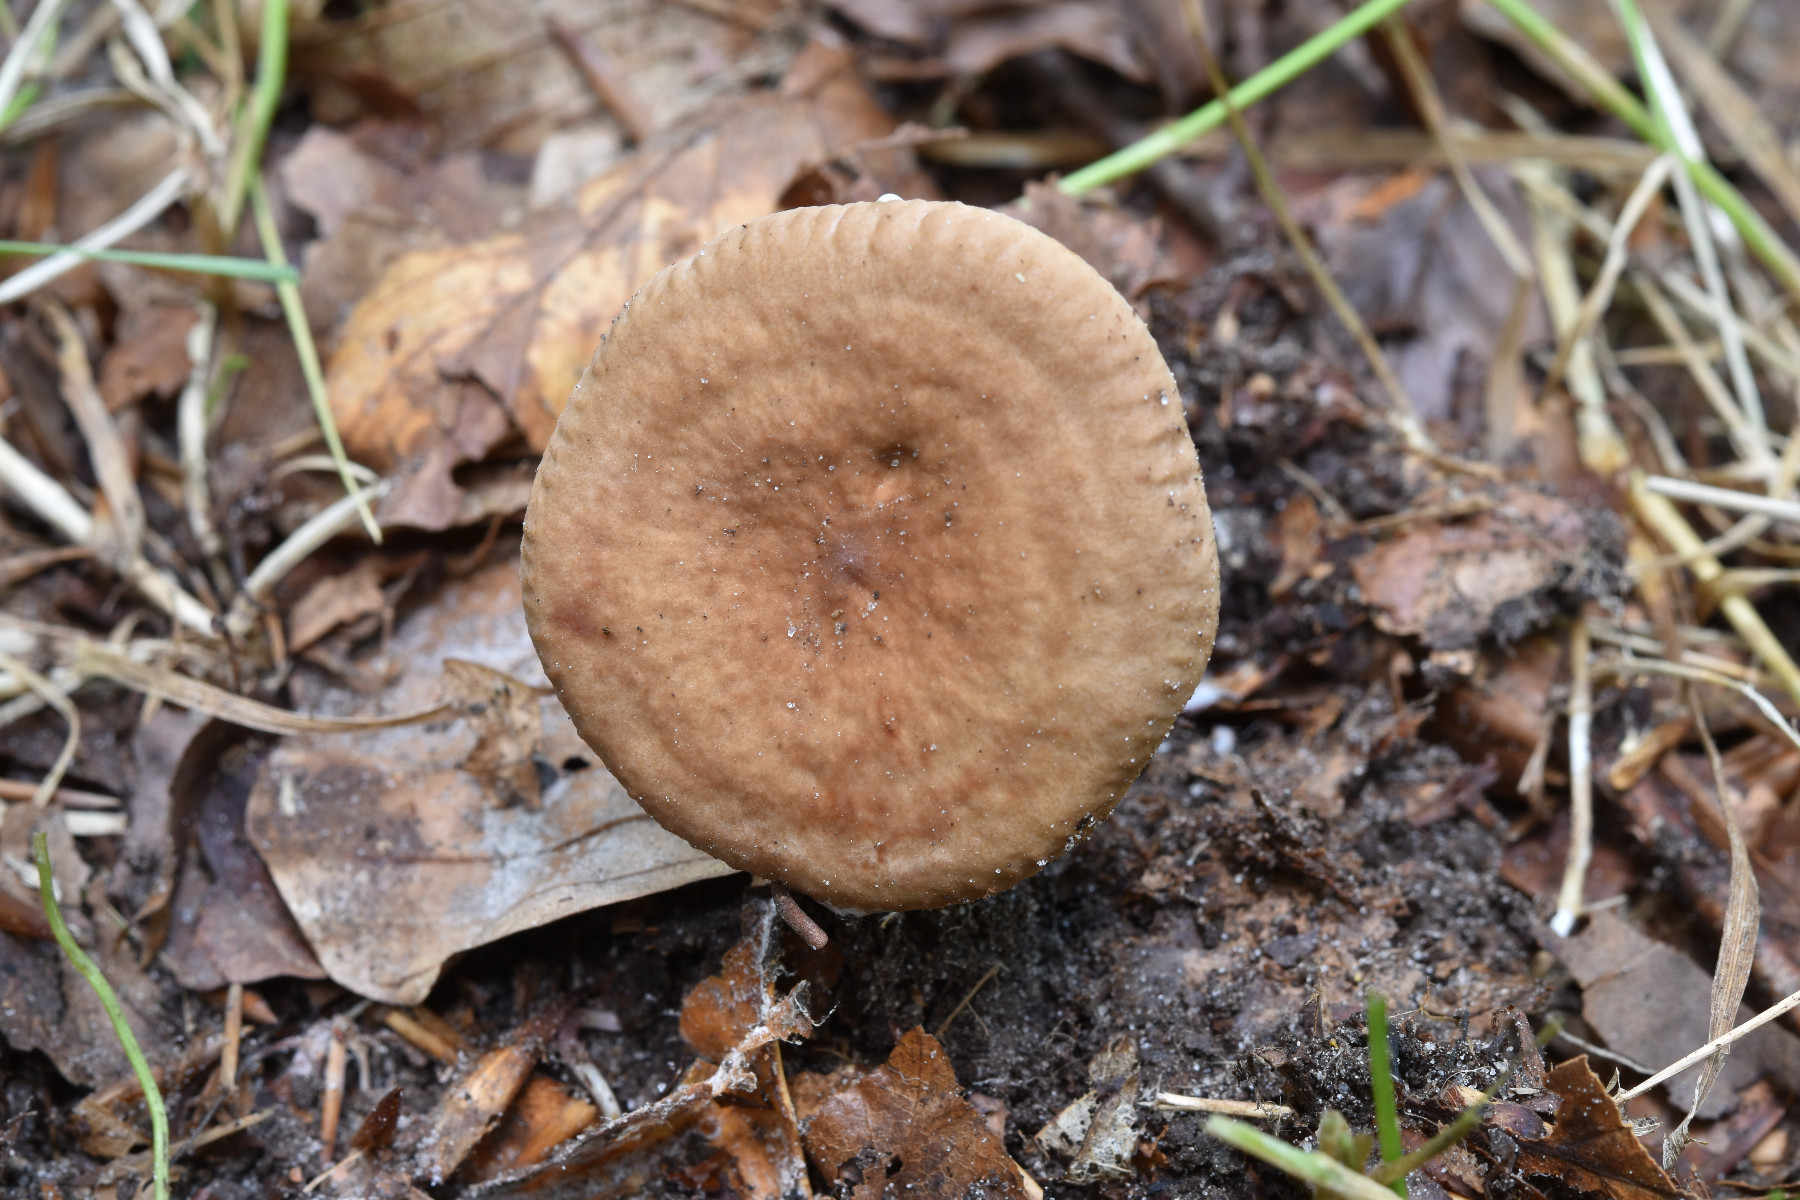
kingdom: Fungi
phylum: Basidiomycota
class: Agaricomycetes
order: Russulales
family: Russulaceae
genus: Lactarius
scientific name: Lactarius quietus
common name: ege-mælkehat
